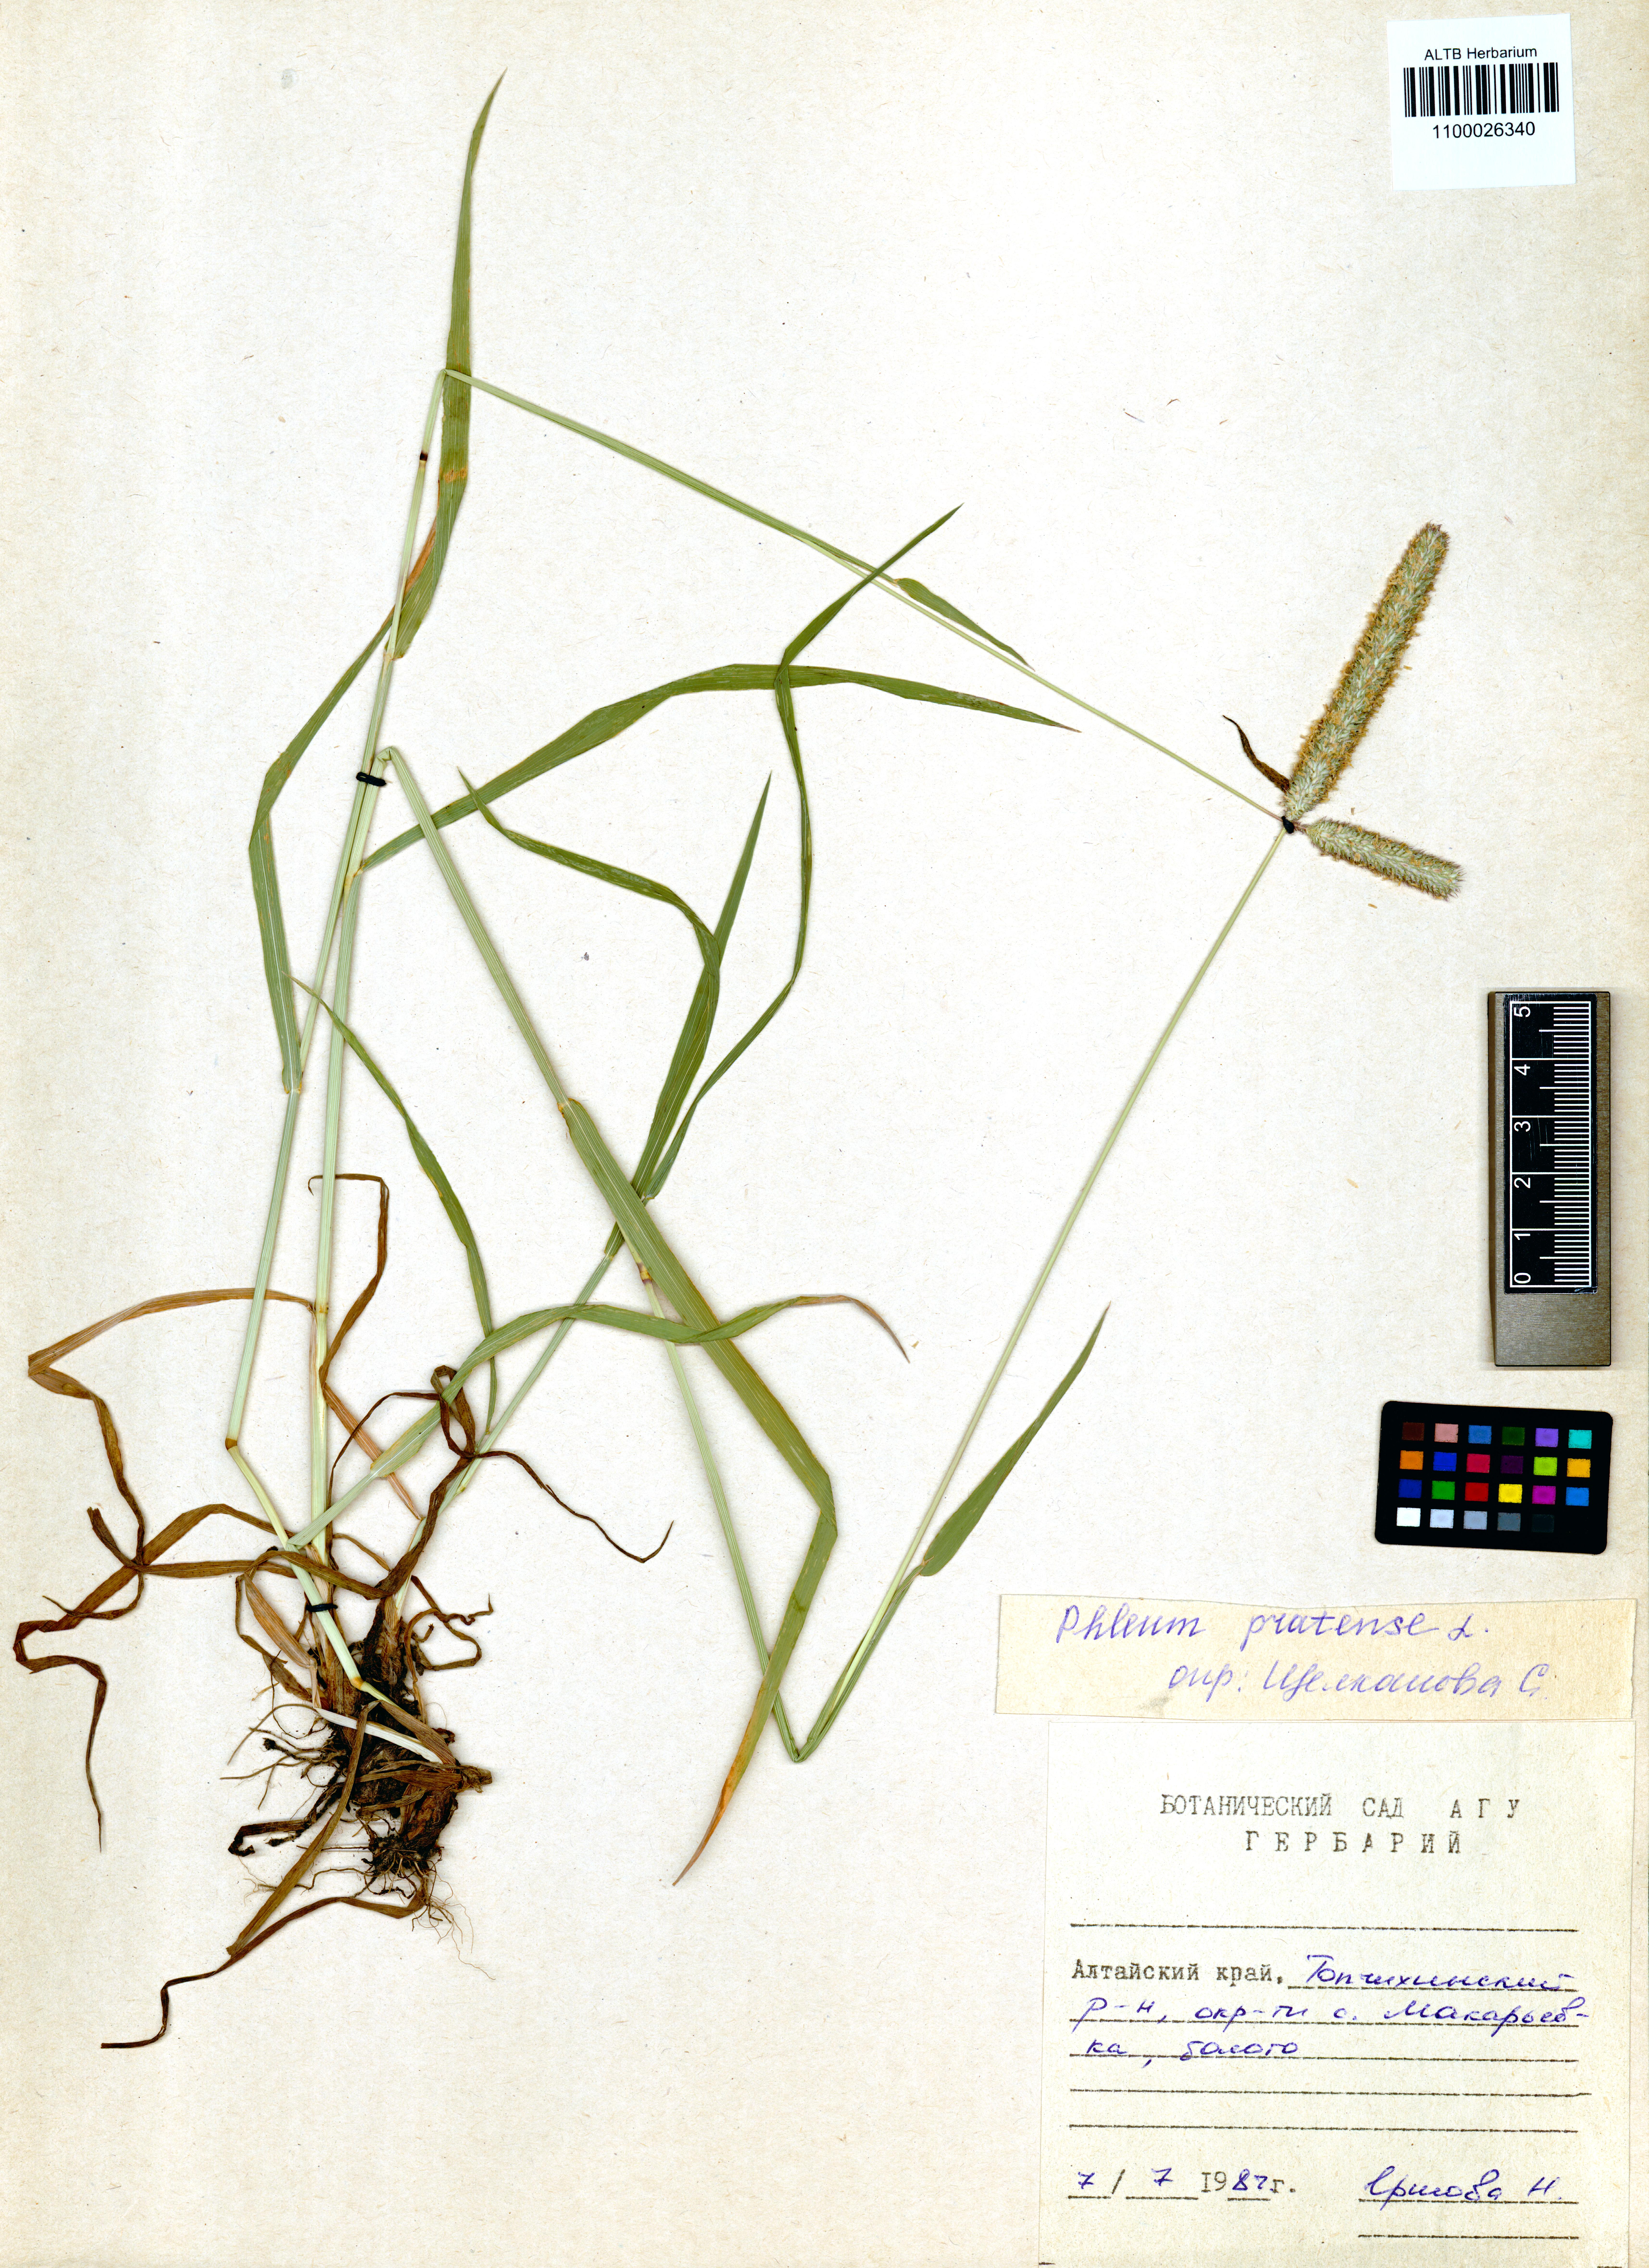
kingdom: Plantae
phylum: Tracheophyta
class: Liliopsida
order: Poales
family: Poaceae
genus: Phleum
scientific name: Phleum pratense
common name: Timothy grass
